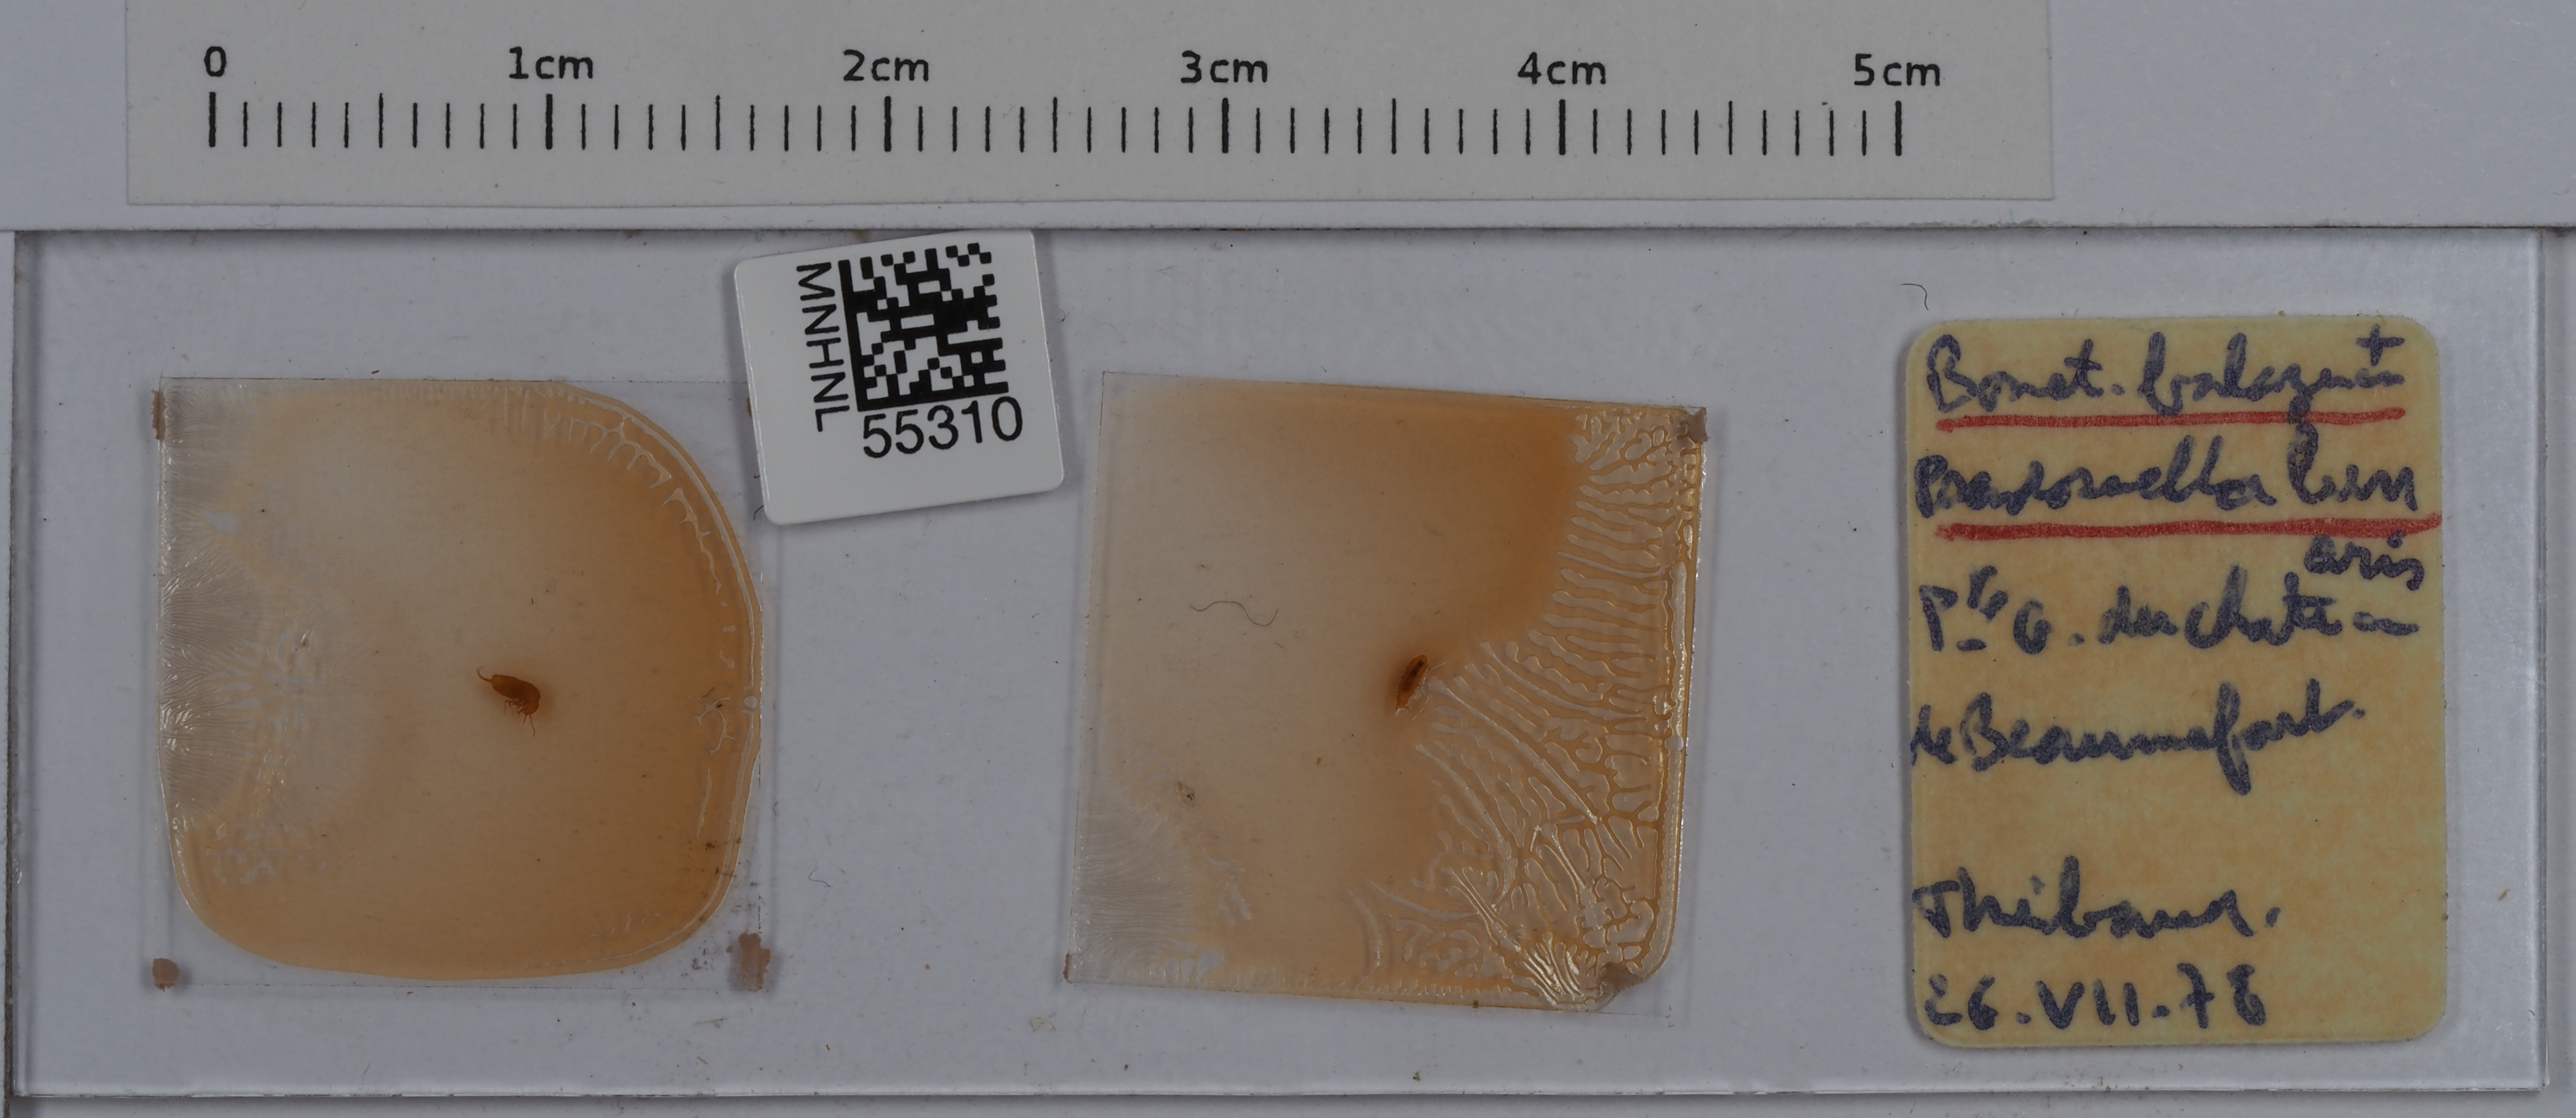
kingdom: Animalia
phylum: Arthropoda
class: Collembola
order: Entomobryomorpha
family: Entomobryidae
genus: Pseudosinella
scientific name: Pseudosinella lunaris
